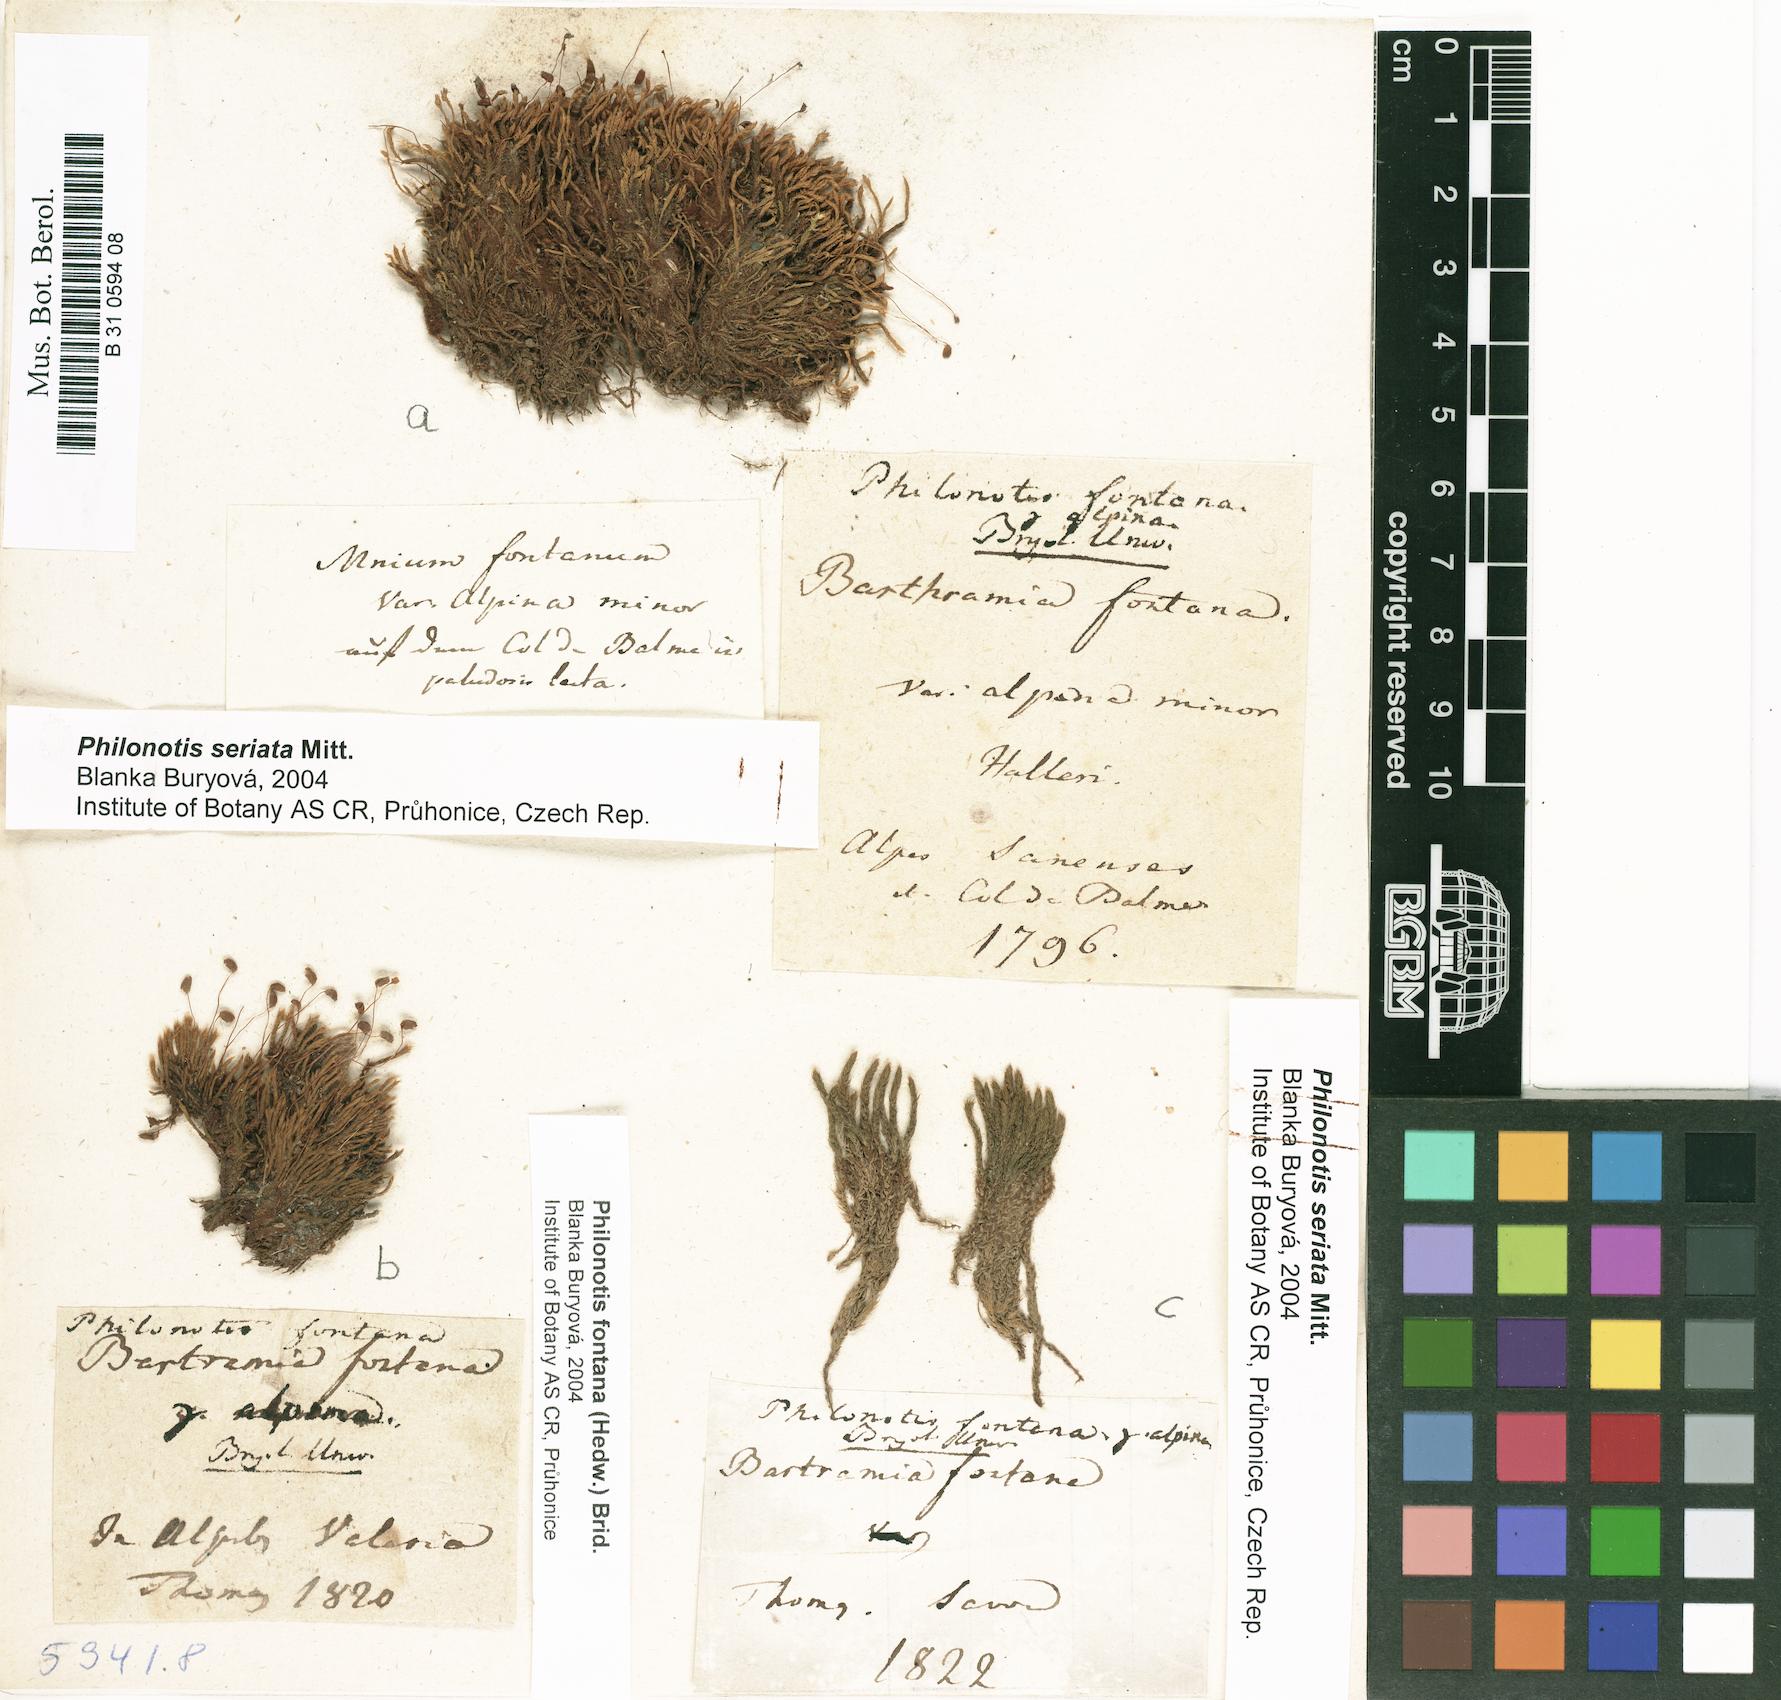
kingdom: Plantae
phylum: Bryophyta
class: Bryopsida
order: Bartramiales
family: Bartramiaceae
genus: Philonotis
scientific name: Philonotis fontana
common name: Fountain apple-moss
